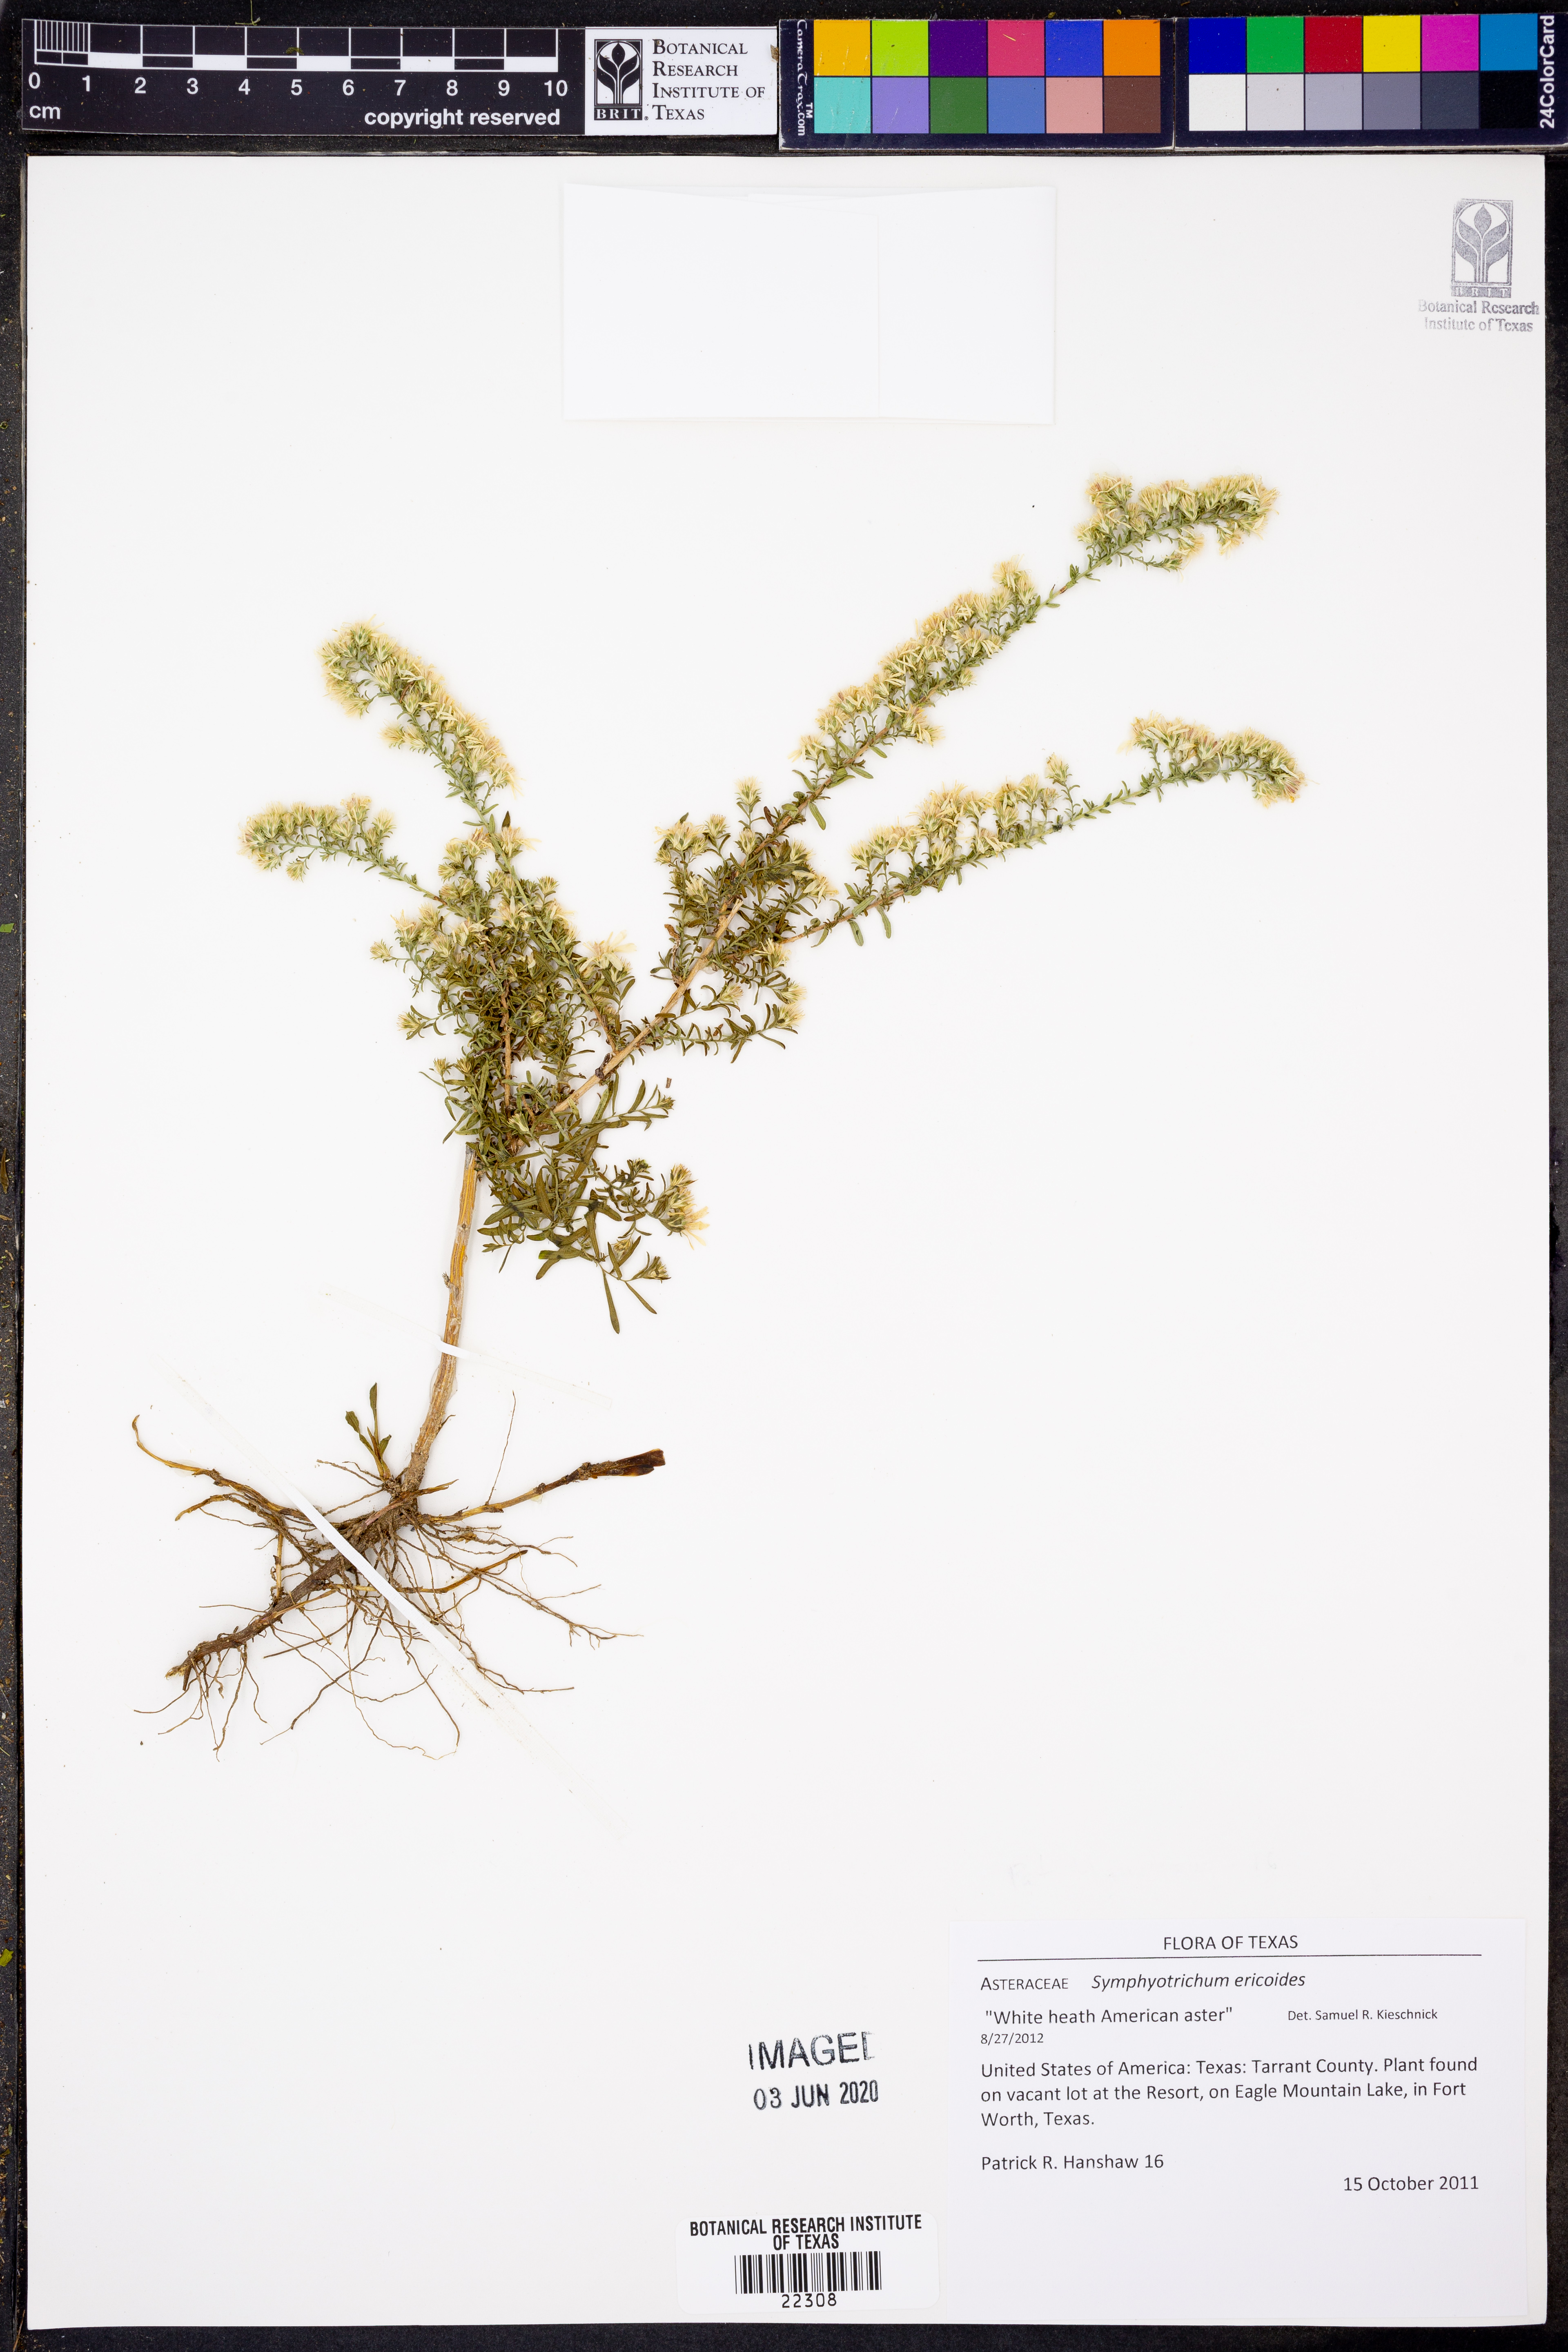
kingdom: Plantae
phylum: Tracheophyta
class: Magnoliopsida
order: Asterales
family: Asteraceae
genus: Symphyotrichum
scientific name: Symphyotrichum ericoides
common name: Heath aster
